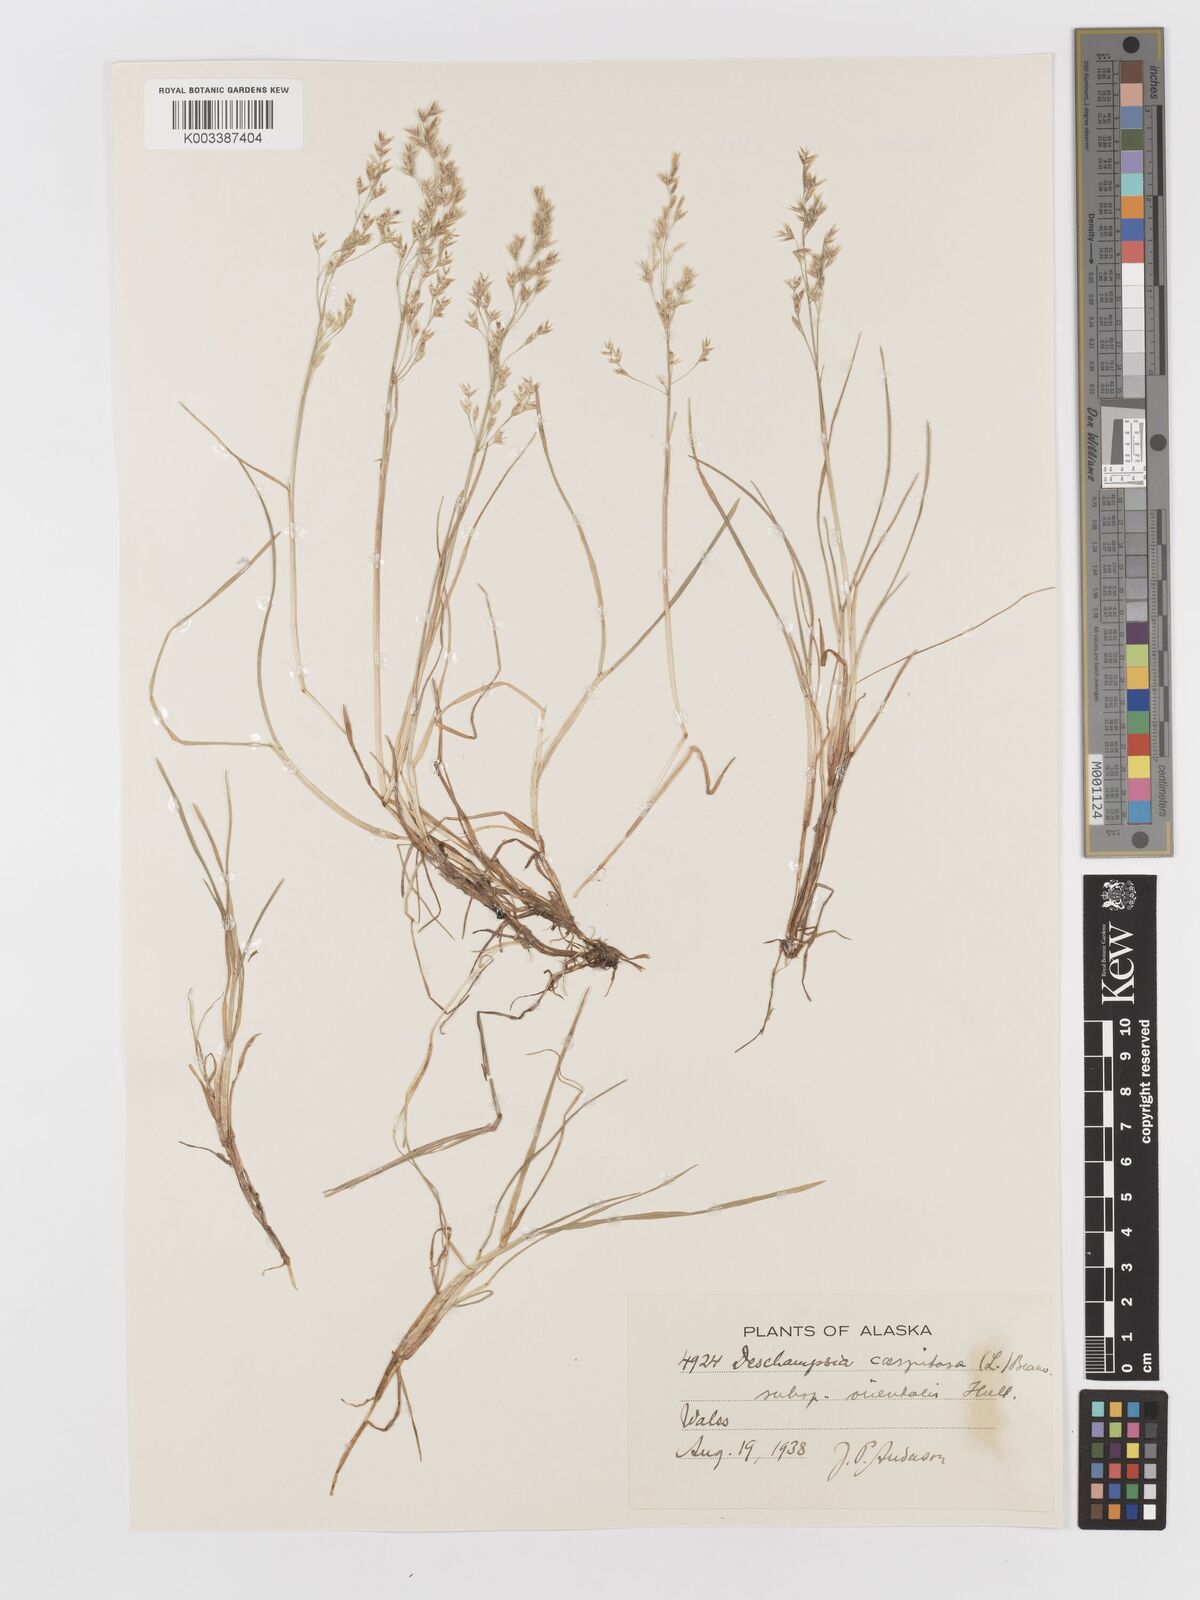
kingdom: Plantae
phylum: Tracheophyta
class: Liliopsida
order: Poales
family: Poaceae
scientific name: Poaceae
